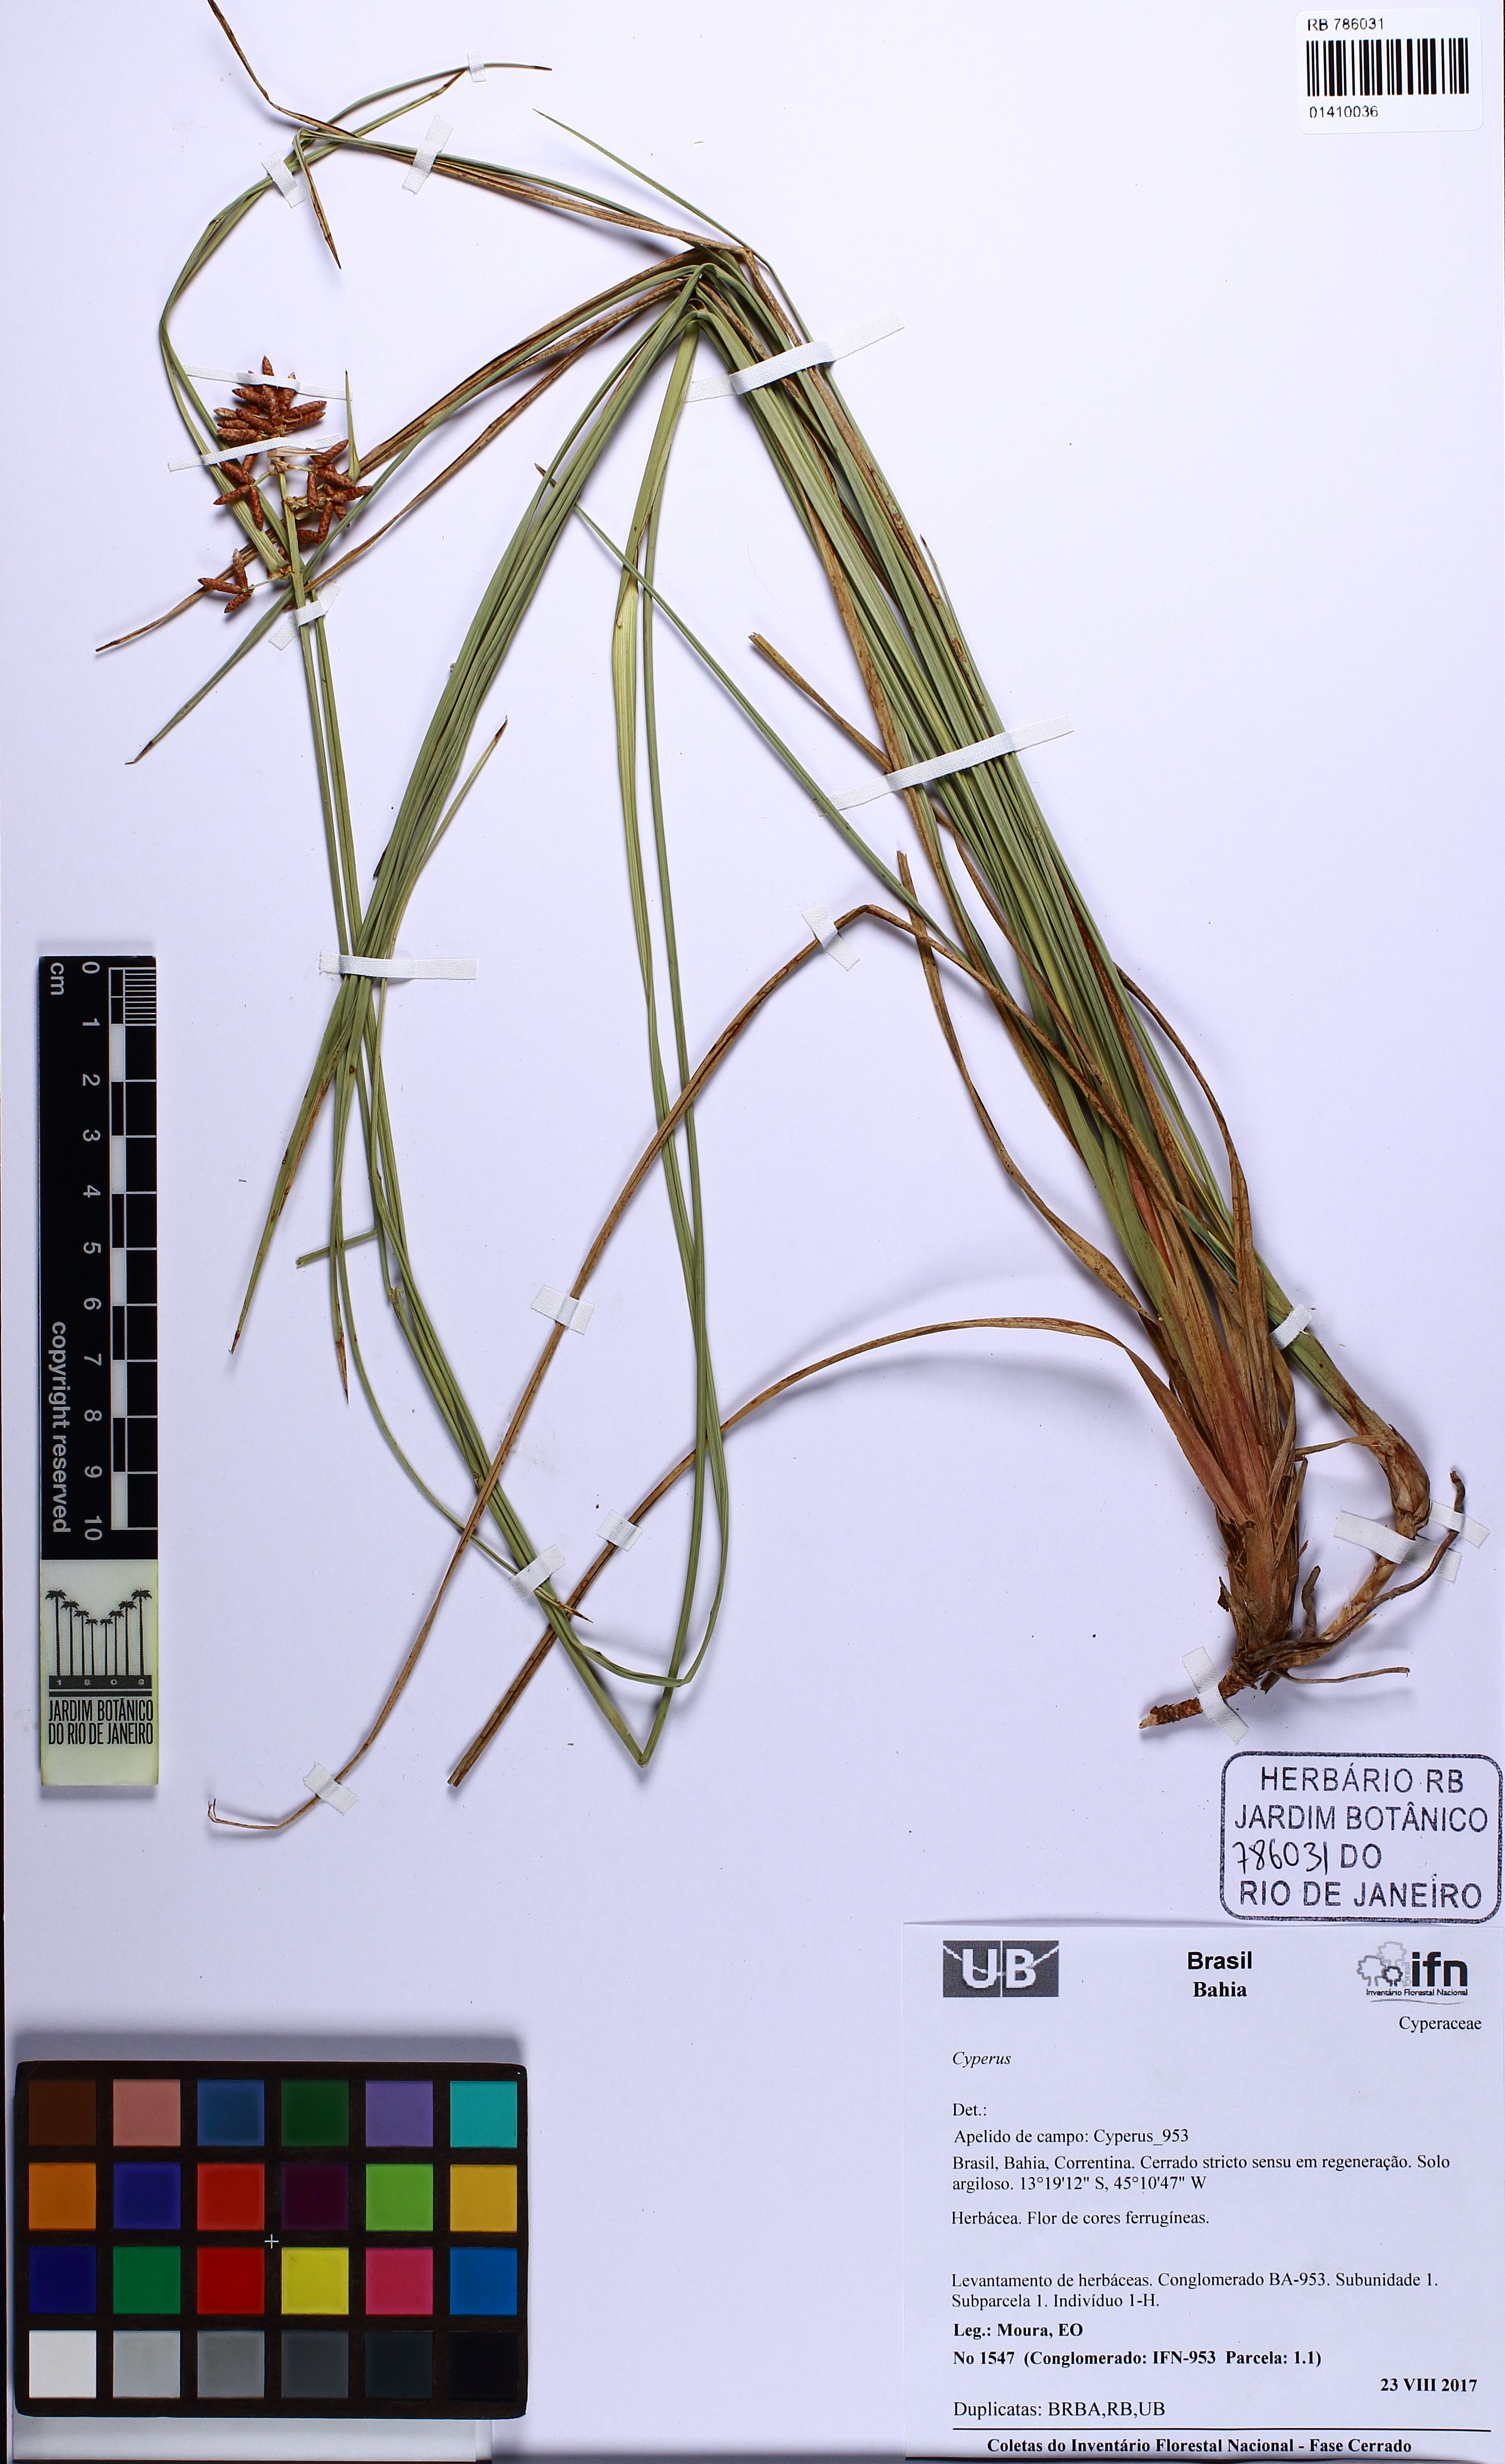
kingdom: Plantae
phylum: Tracheophyta
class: Liliopsida
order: Poales
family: Cyperaceae
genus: Hypolytrum
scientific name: Hypolytrum
